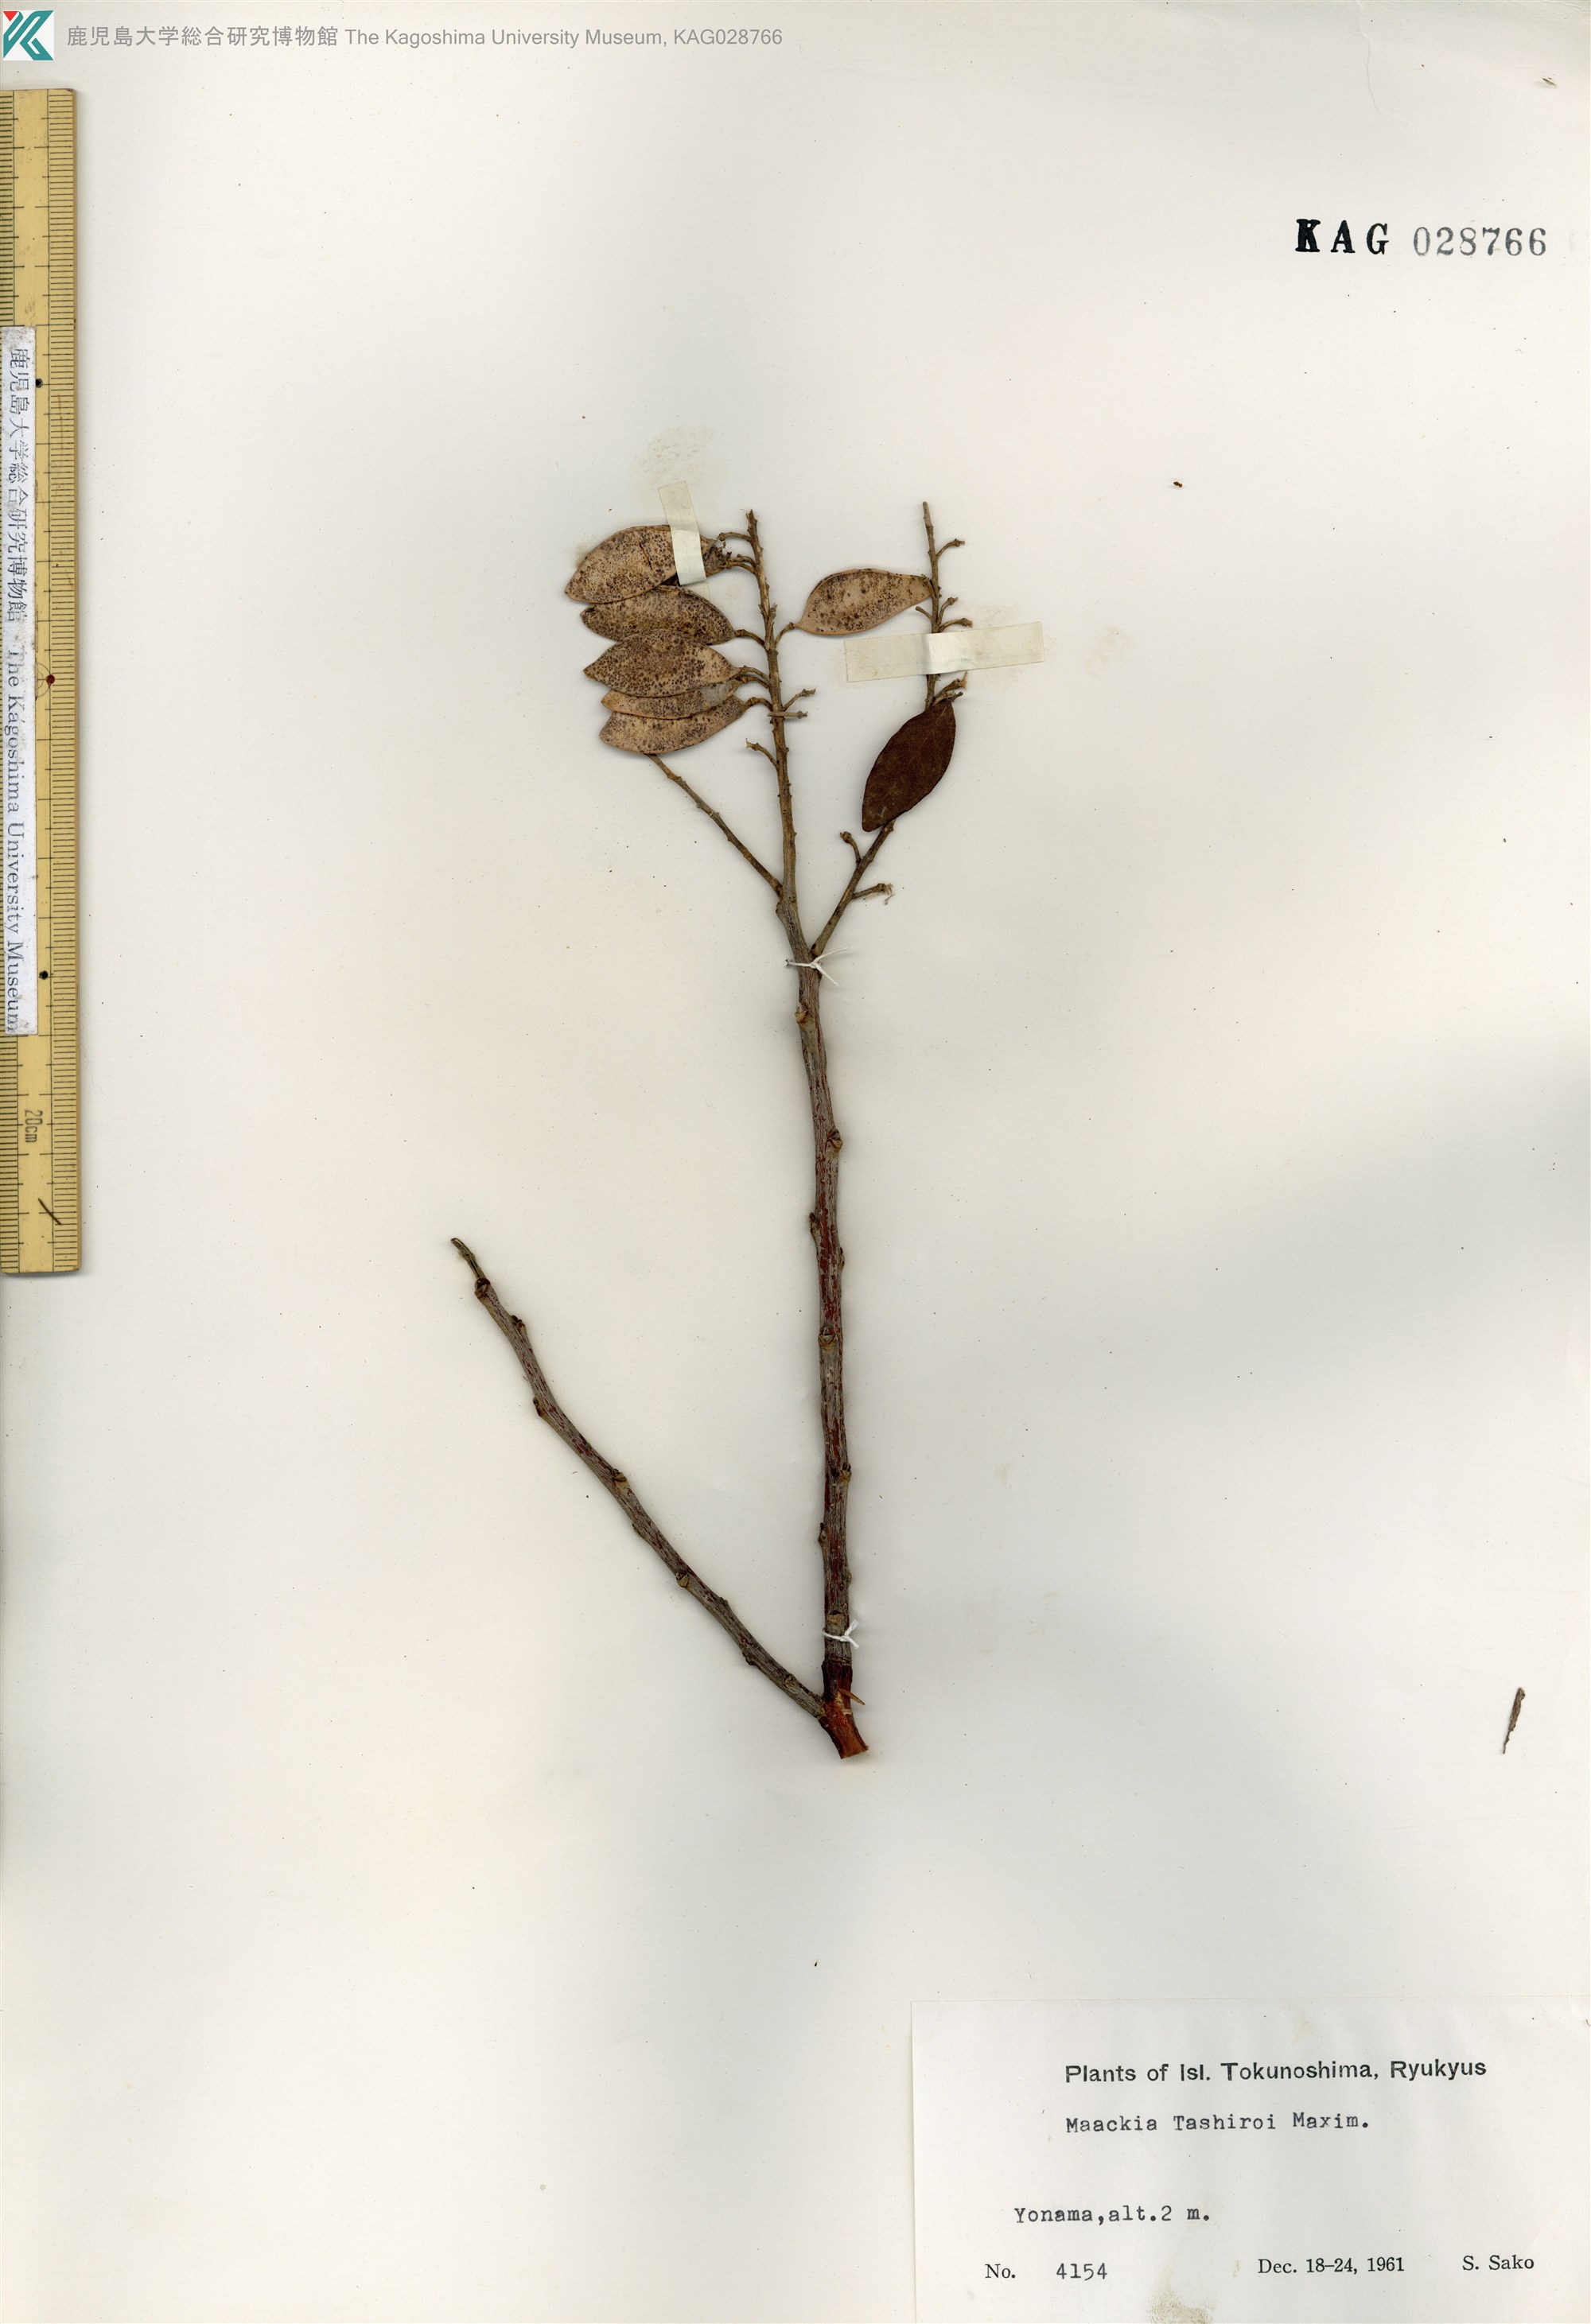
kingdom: Plantae
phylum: Tracheophyta
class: Magnoliopsida
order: Fabales
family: Fabaceae
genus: Maackia
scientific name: Maackia tashiroi
